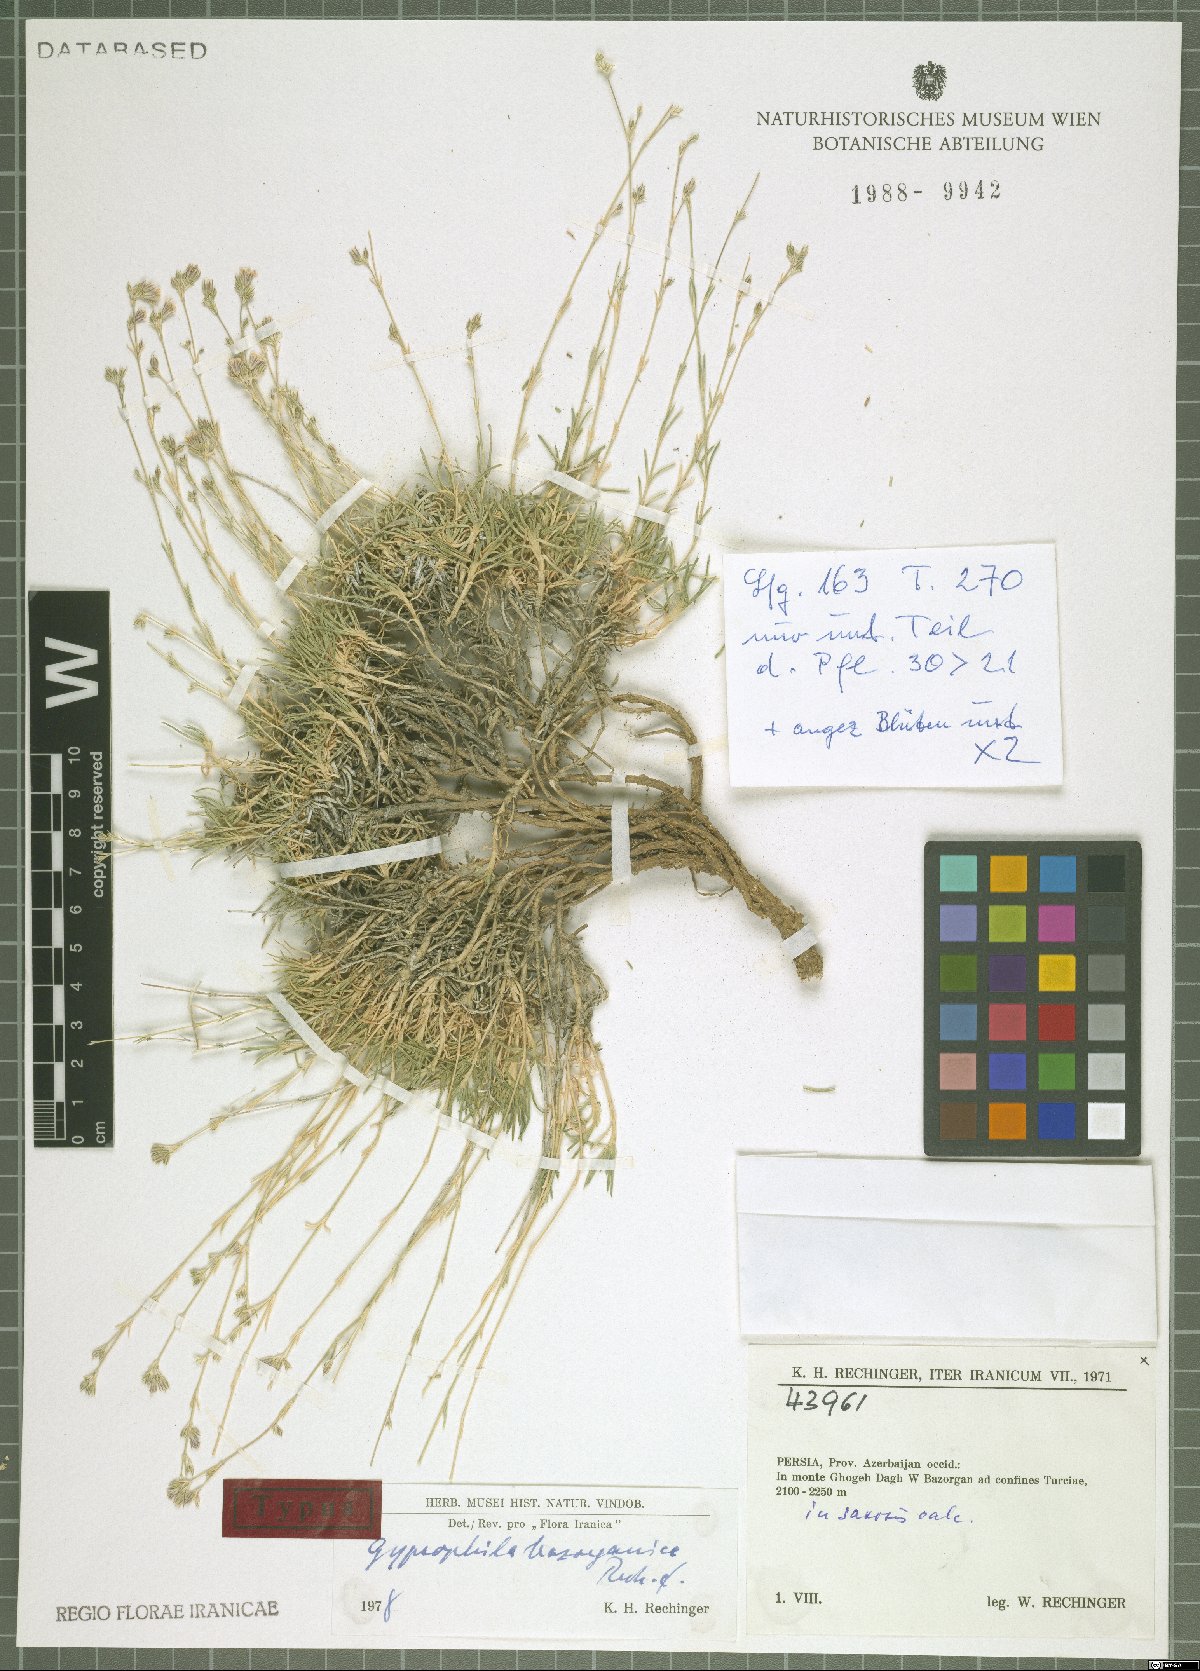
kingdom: Plantae
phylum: Tracheophyta
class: Magnoliopsida
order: Caryophyllales
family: Caryophyllaceae
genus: Gypsophila
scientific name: Gypsophila bazorganica
